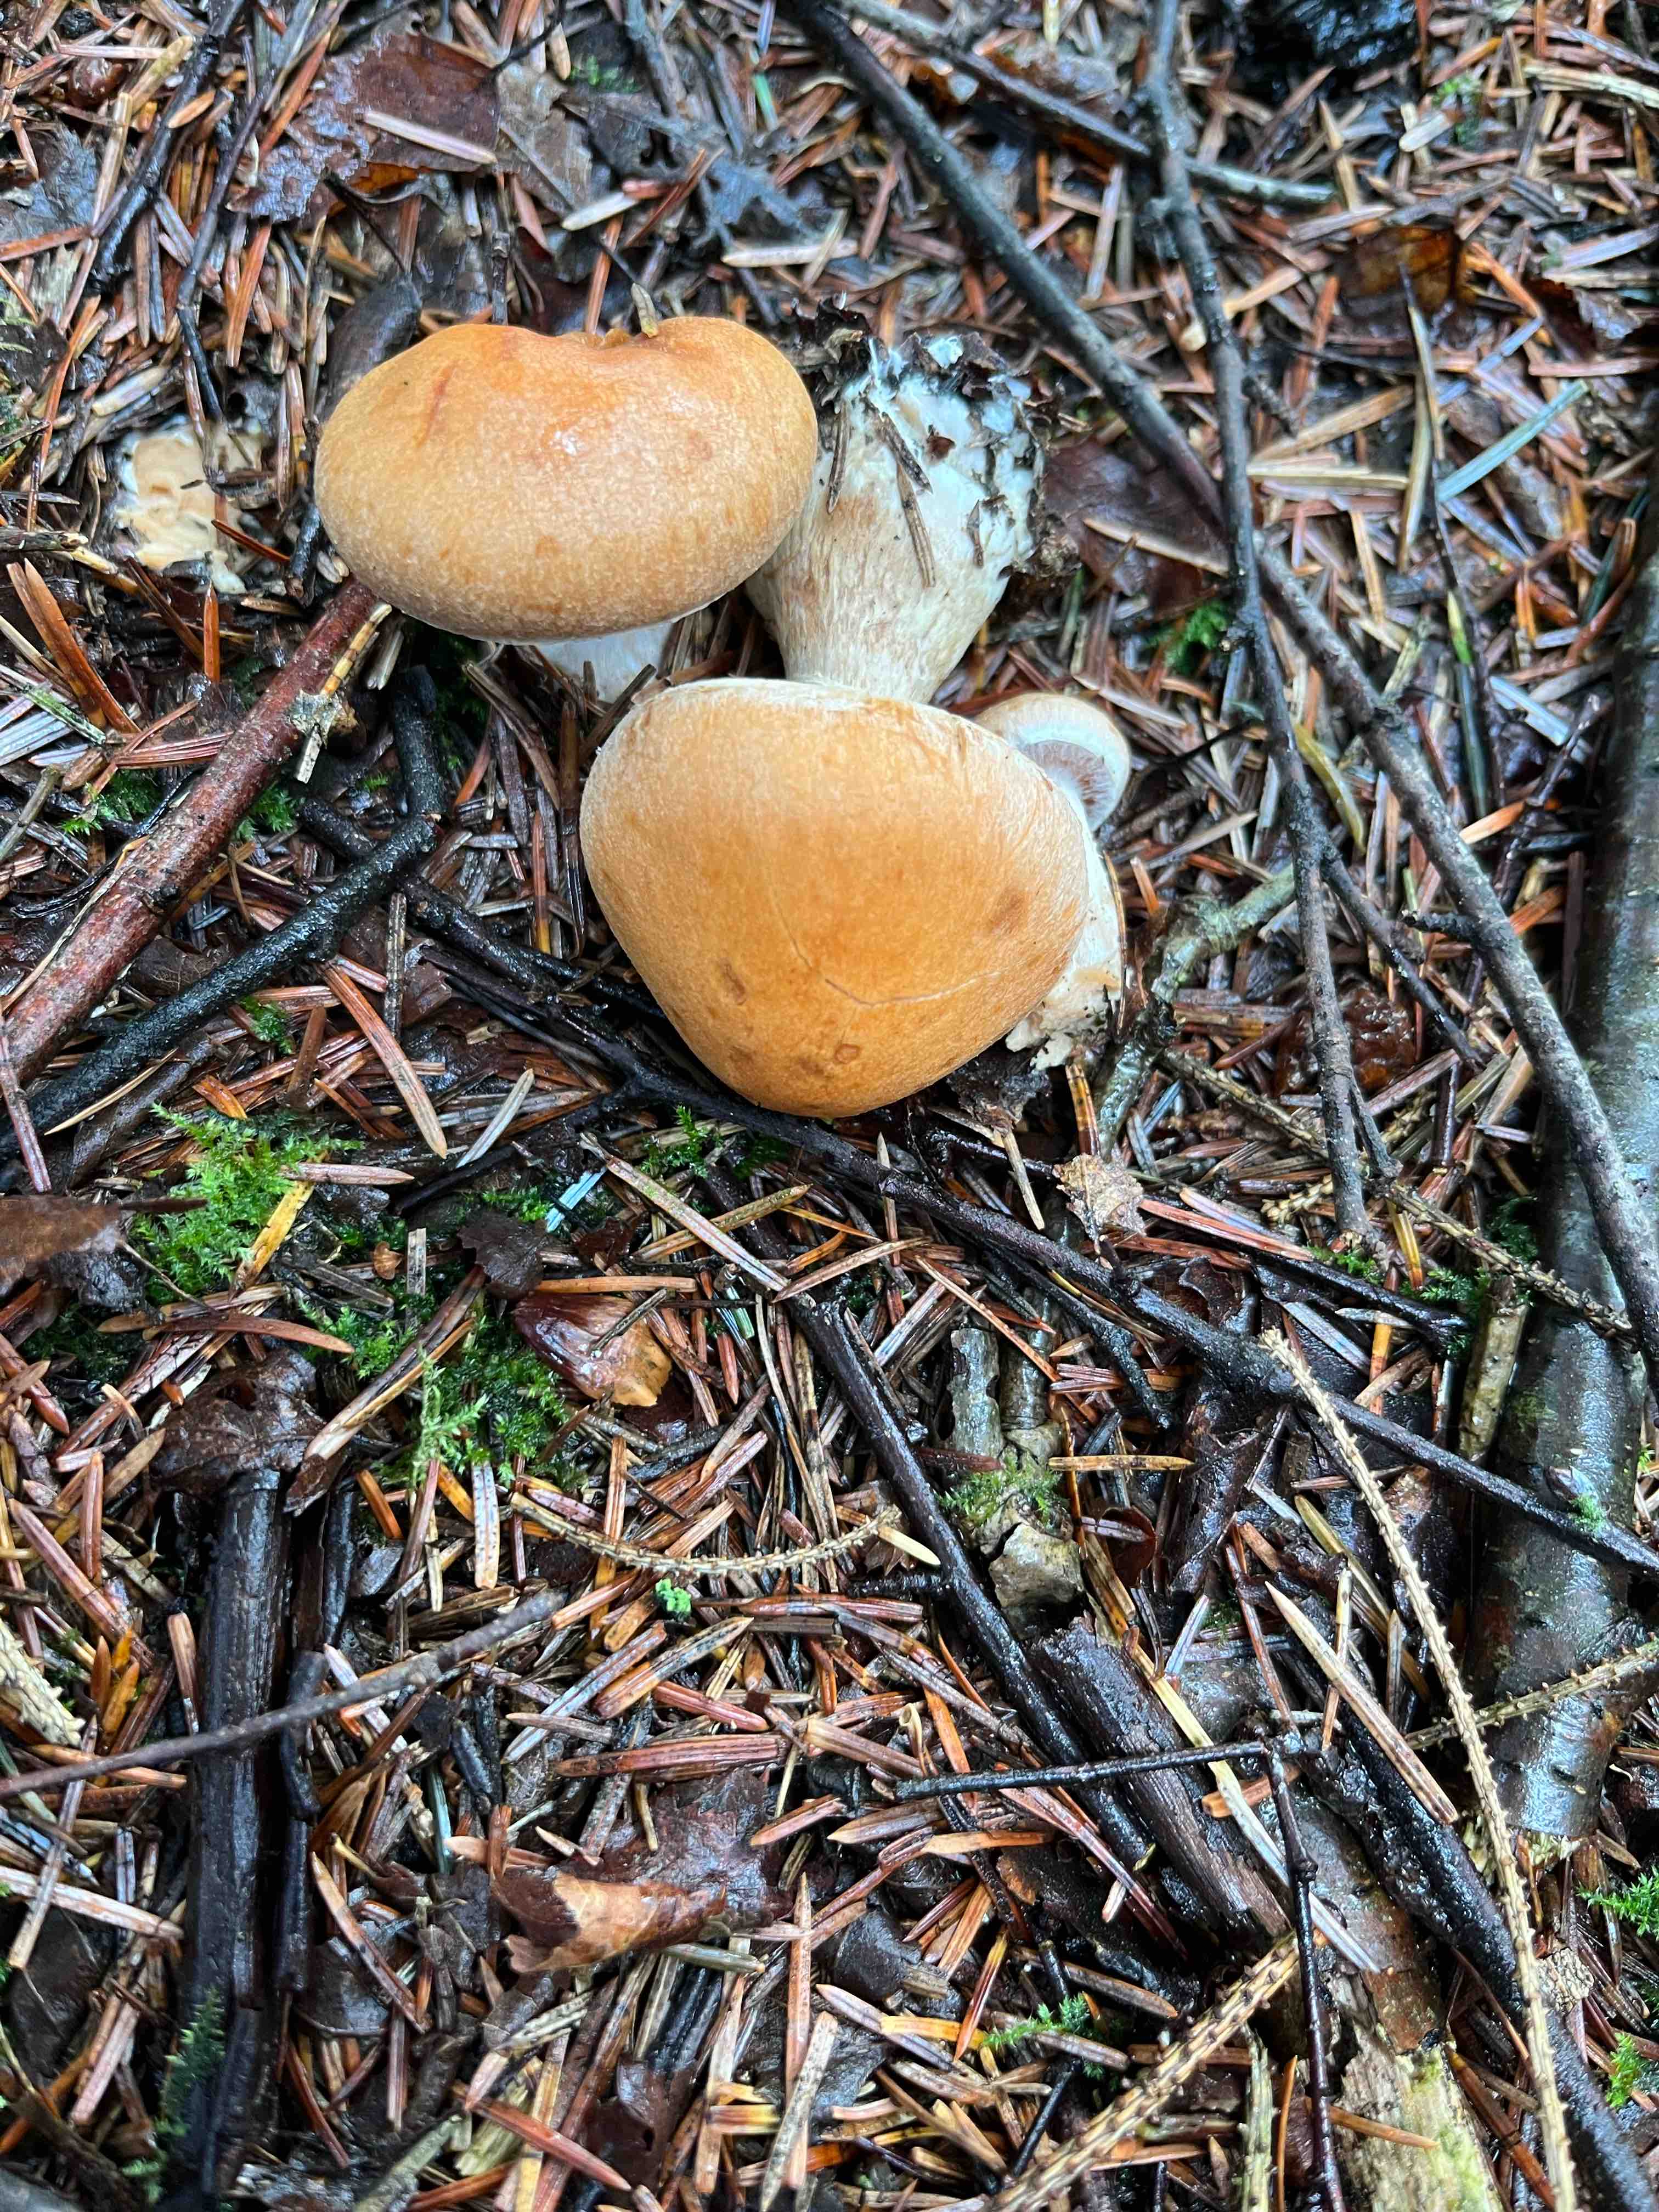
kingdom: Fungi
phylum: Basidiomycota
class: Agaricomycetes
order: Agaricales
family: Cortinariaceae
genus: Cortinarius
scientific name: Cortinarius laniger
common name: teglbladet slørhat
